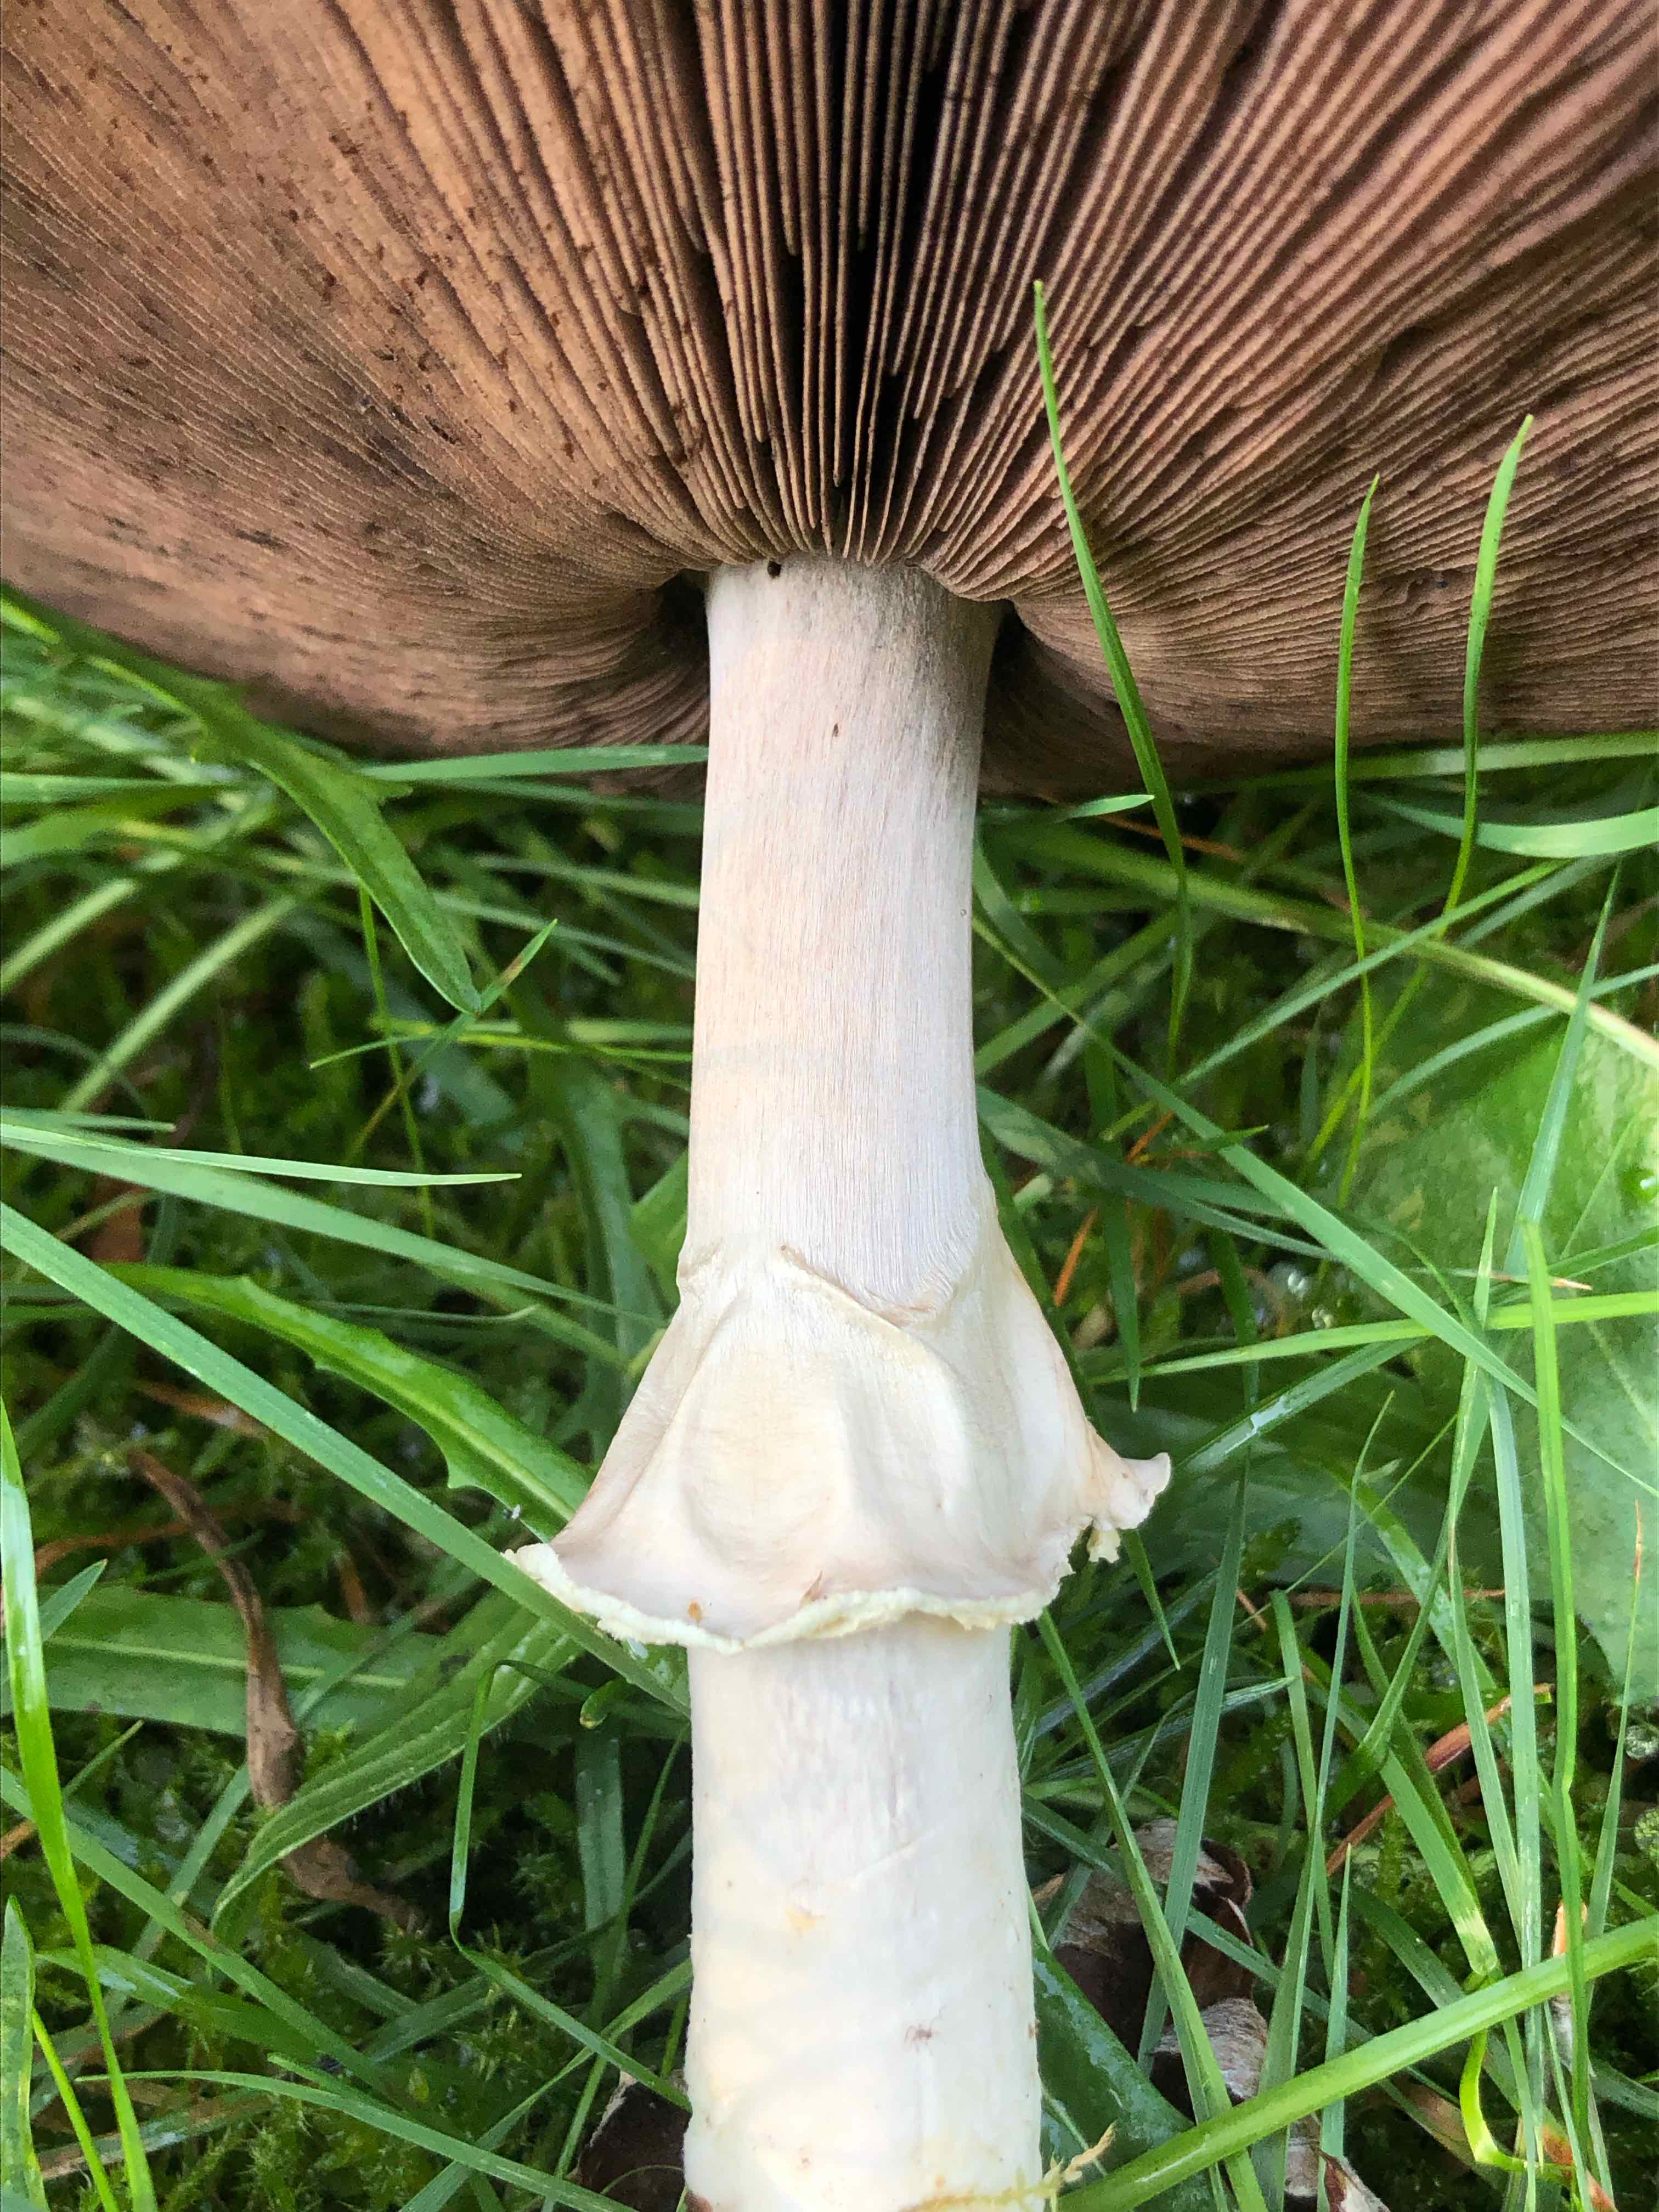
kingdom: Fungi
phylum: Basidiomycota
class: Agaricomycetes
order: Agaricales
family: Agaricaceae
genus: Agaricus
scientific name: Agaricus sylvicola
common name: skiveknoldet champignon
